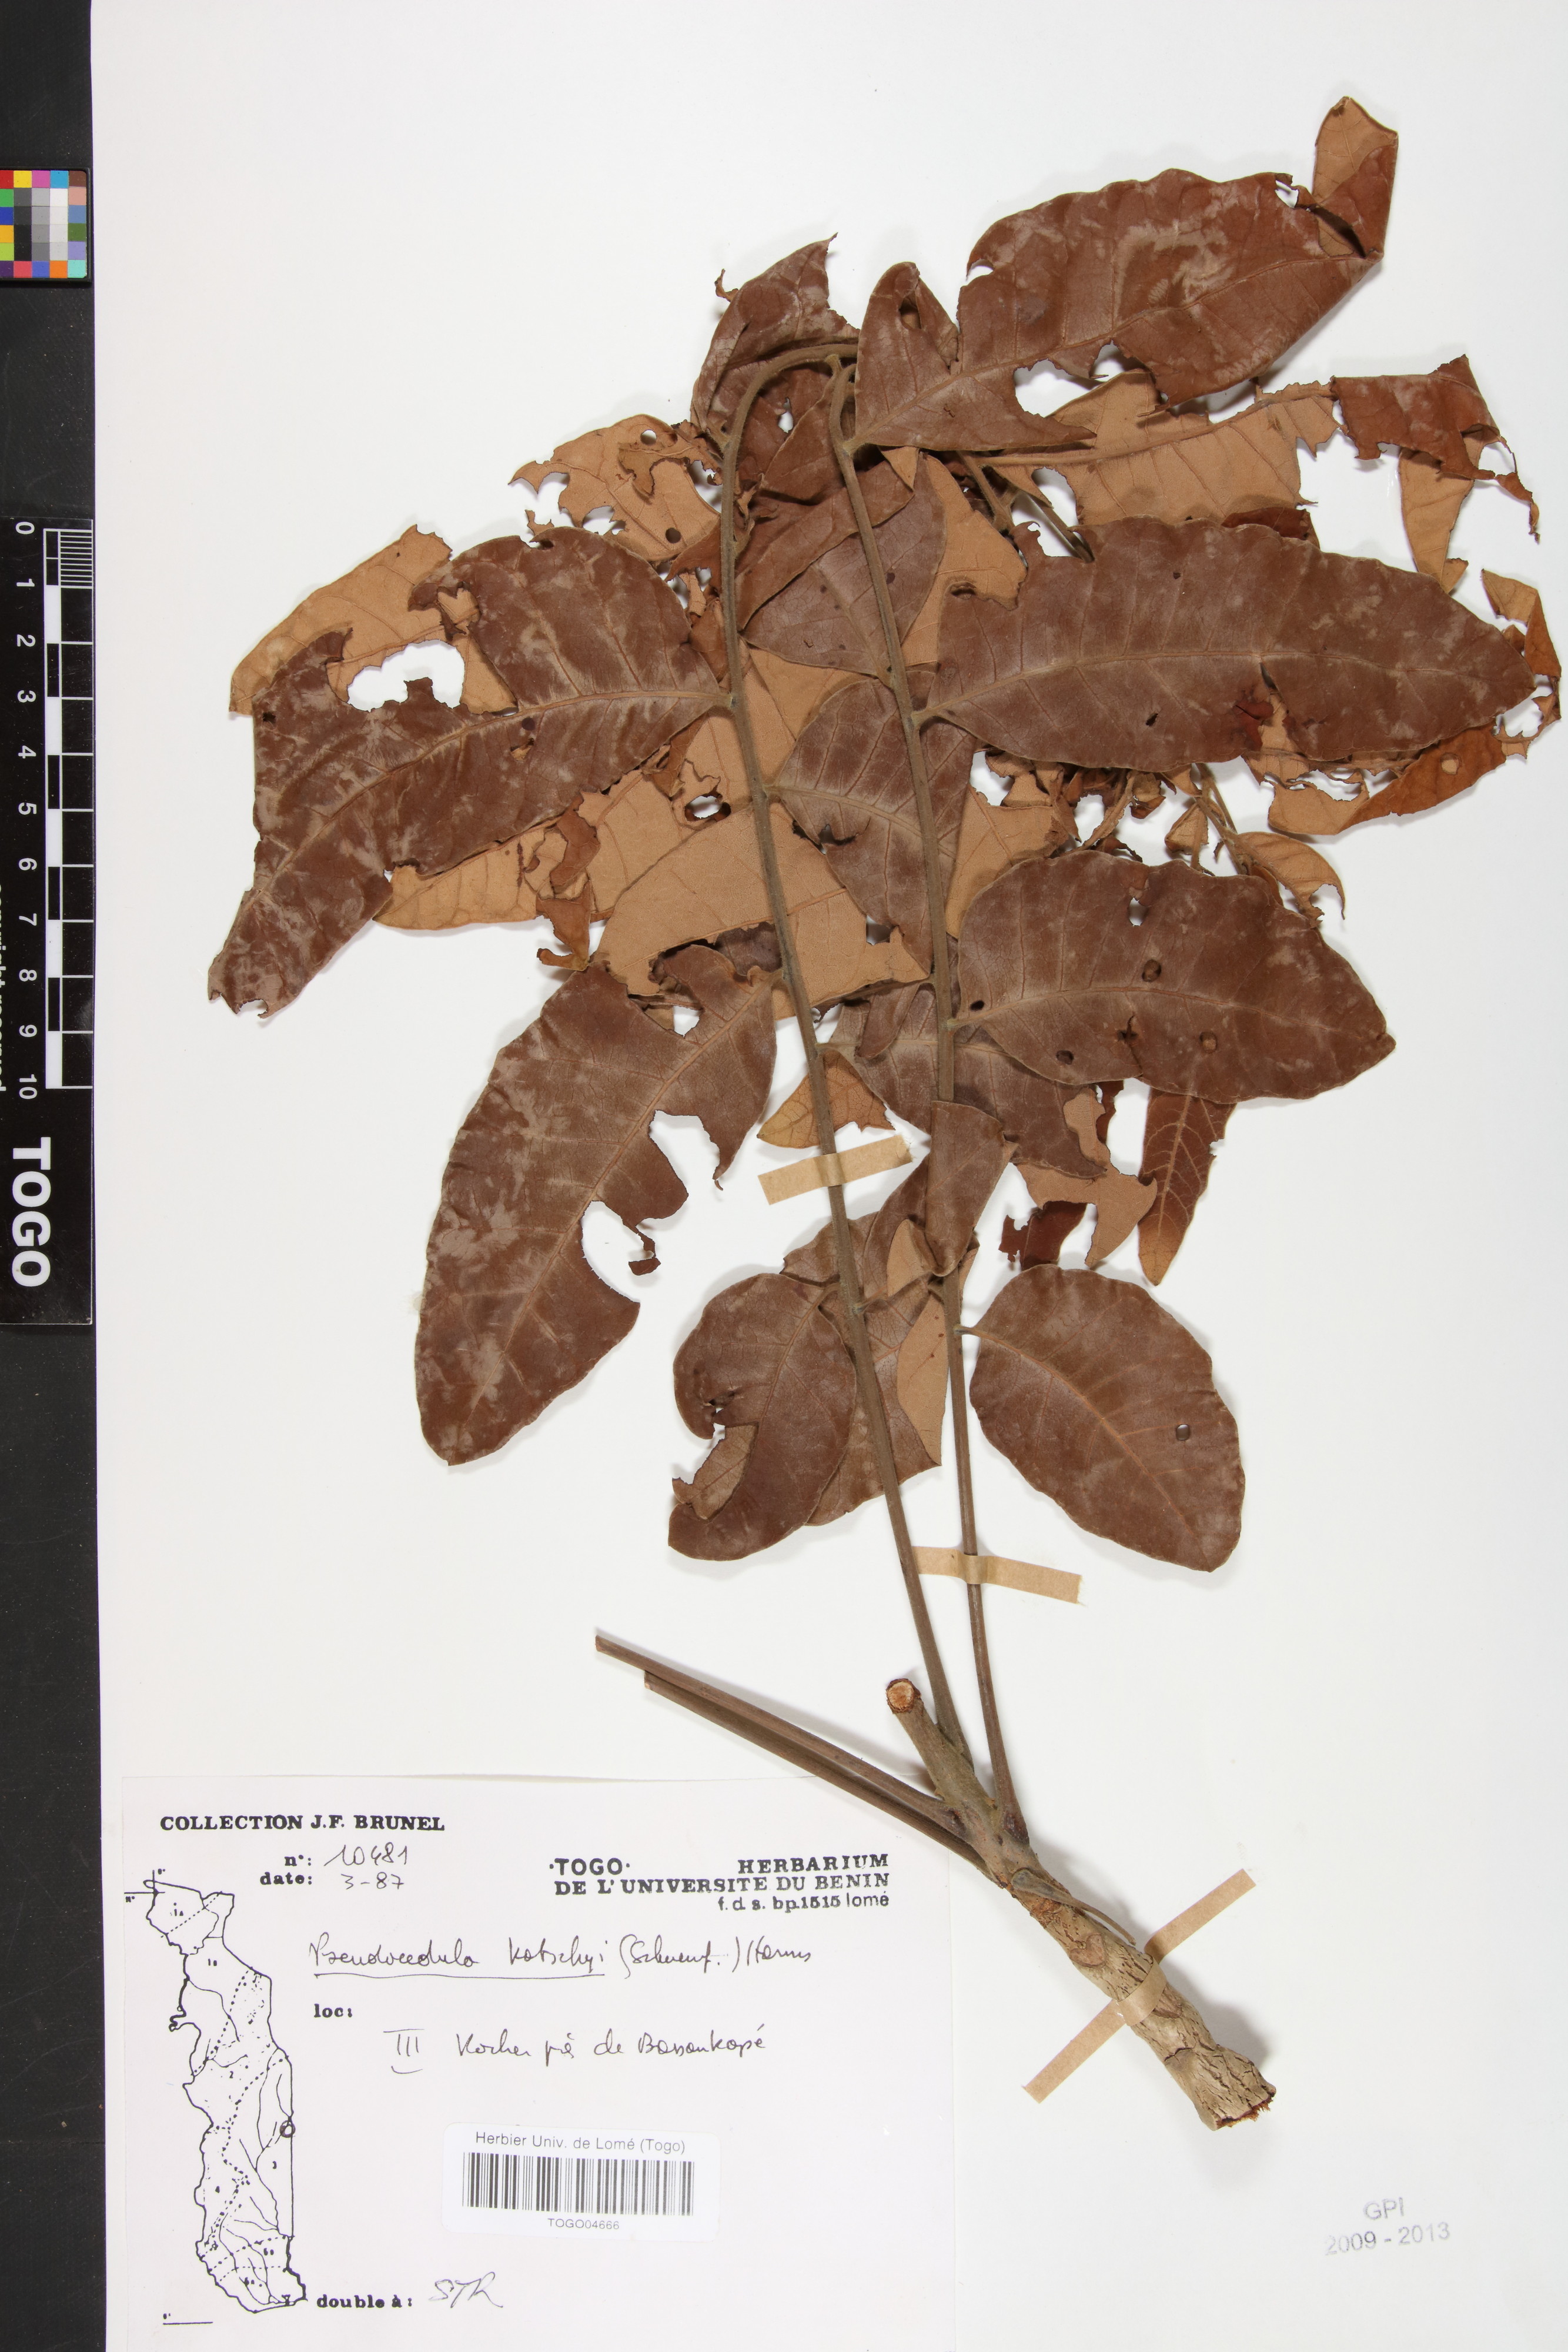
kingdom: Plantae
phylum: Tracheophyta
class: Magnoliopsida
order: Sapindales
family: Meliaceae
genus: Pseudocedrela
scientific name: Pseudocedrela kotschyi
